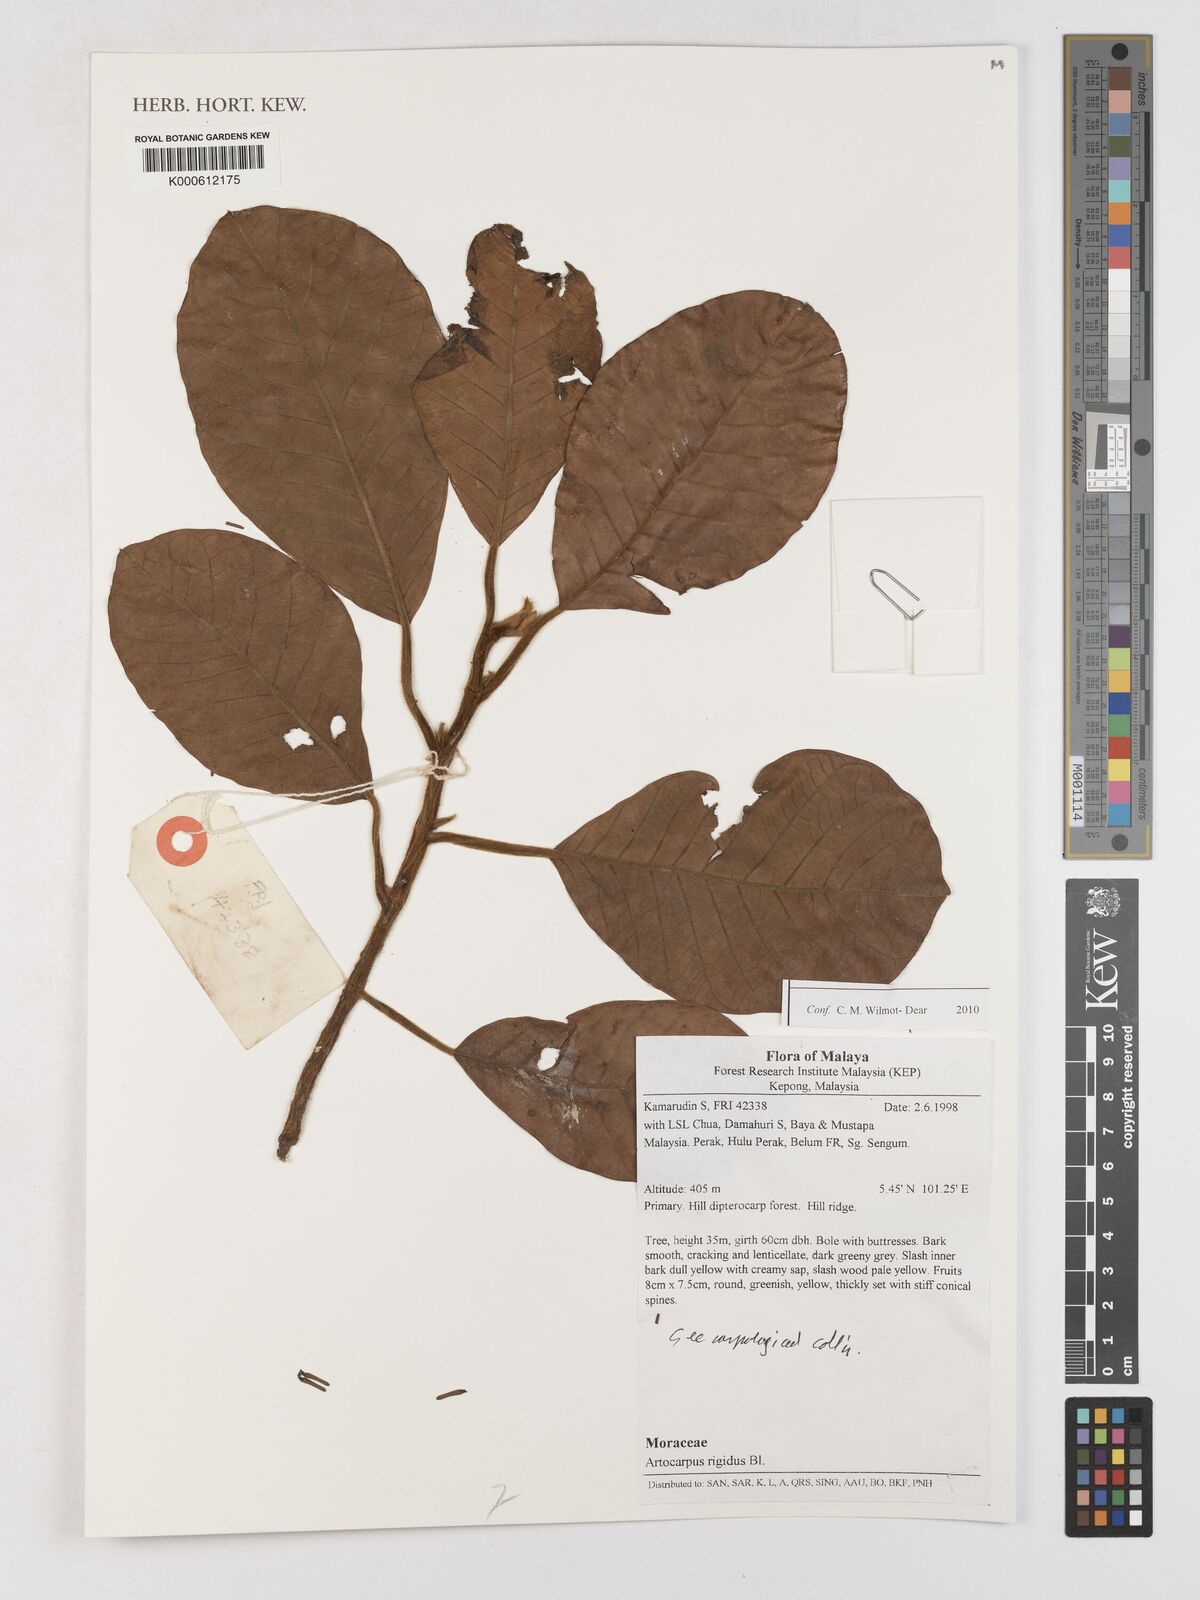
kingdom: Plantae
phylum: Tracheophyta
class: Magnoliopsida
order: Rosales
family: Moraceae
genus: Artocarpus
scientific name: Artocarpus rigidus
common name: Monkey-jack
